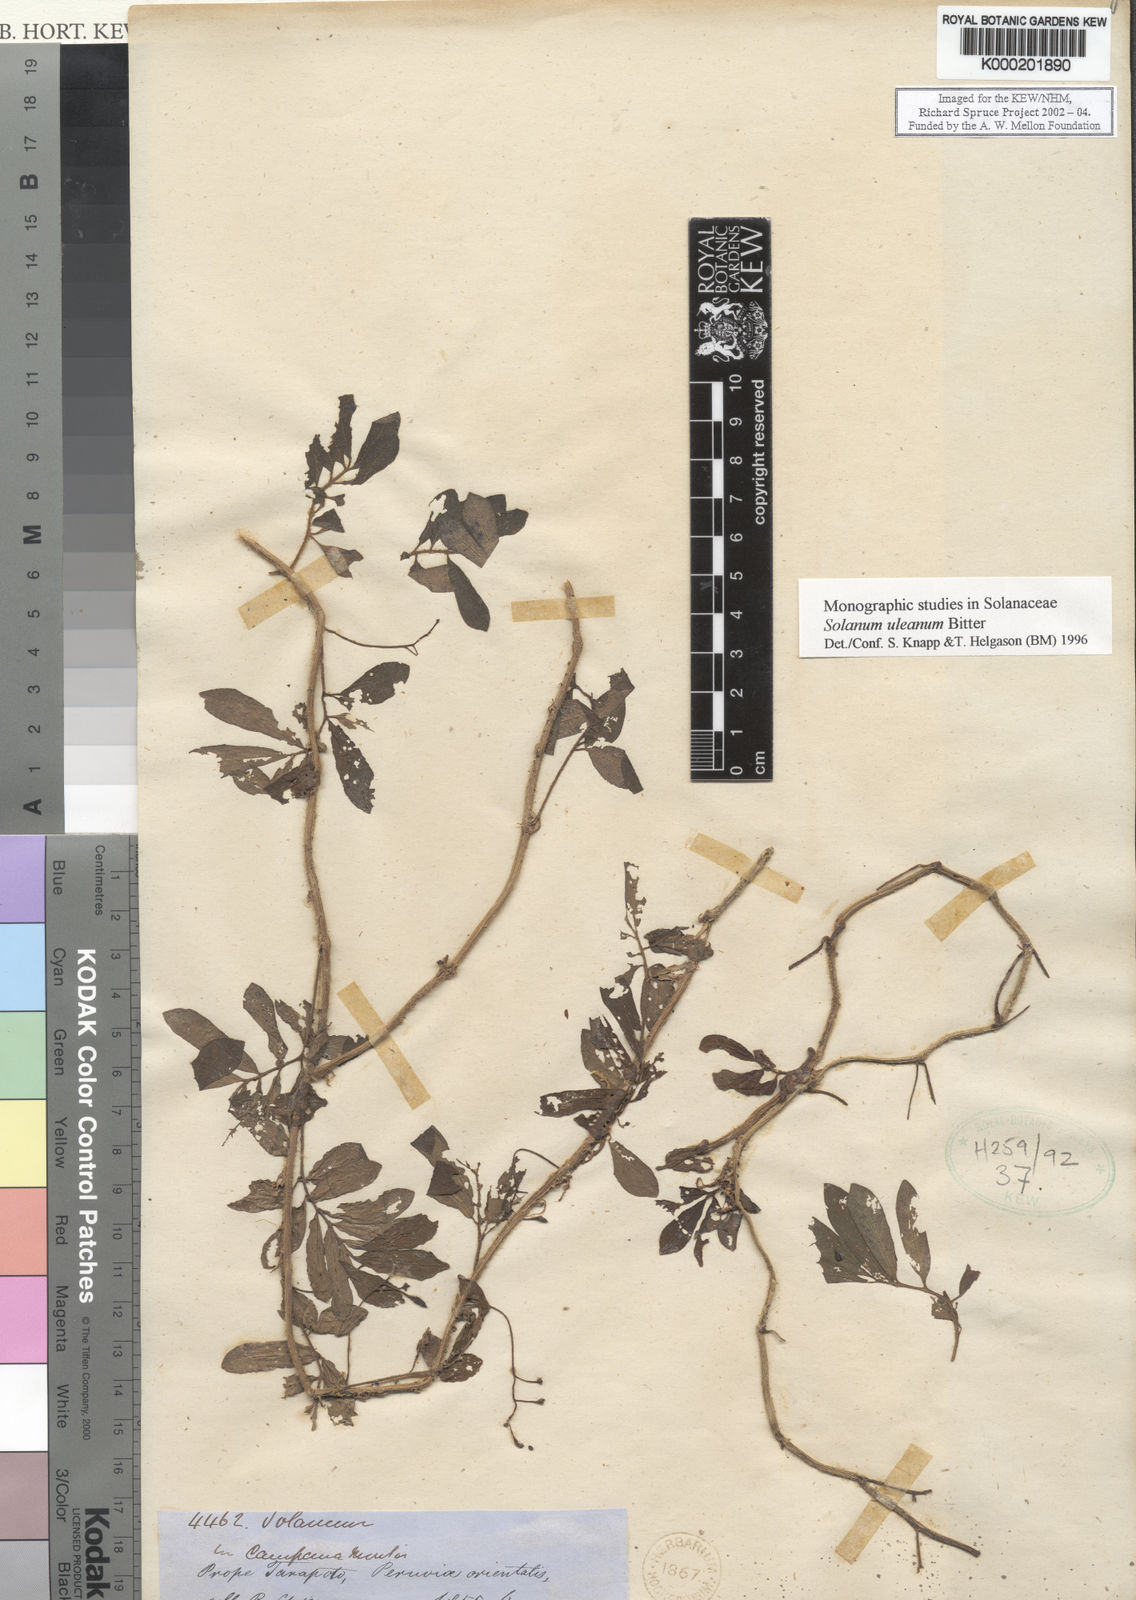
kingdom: Plantae
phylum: Tracheophyta
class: Magnoliopsida
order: Solanales
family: Solanaceae
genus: Solanum
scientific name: Solanum uleanum
